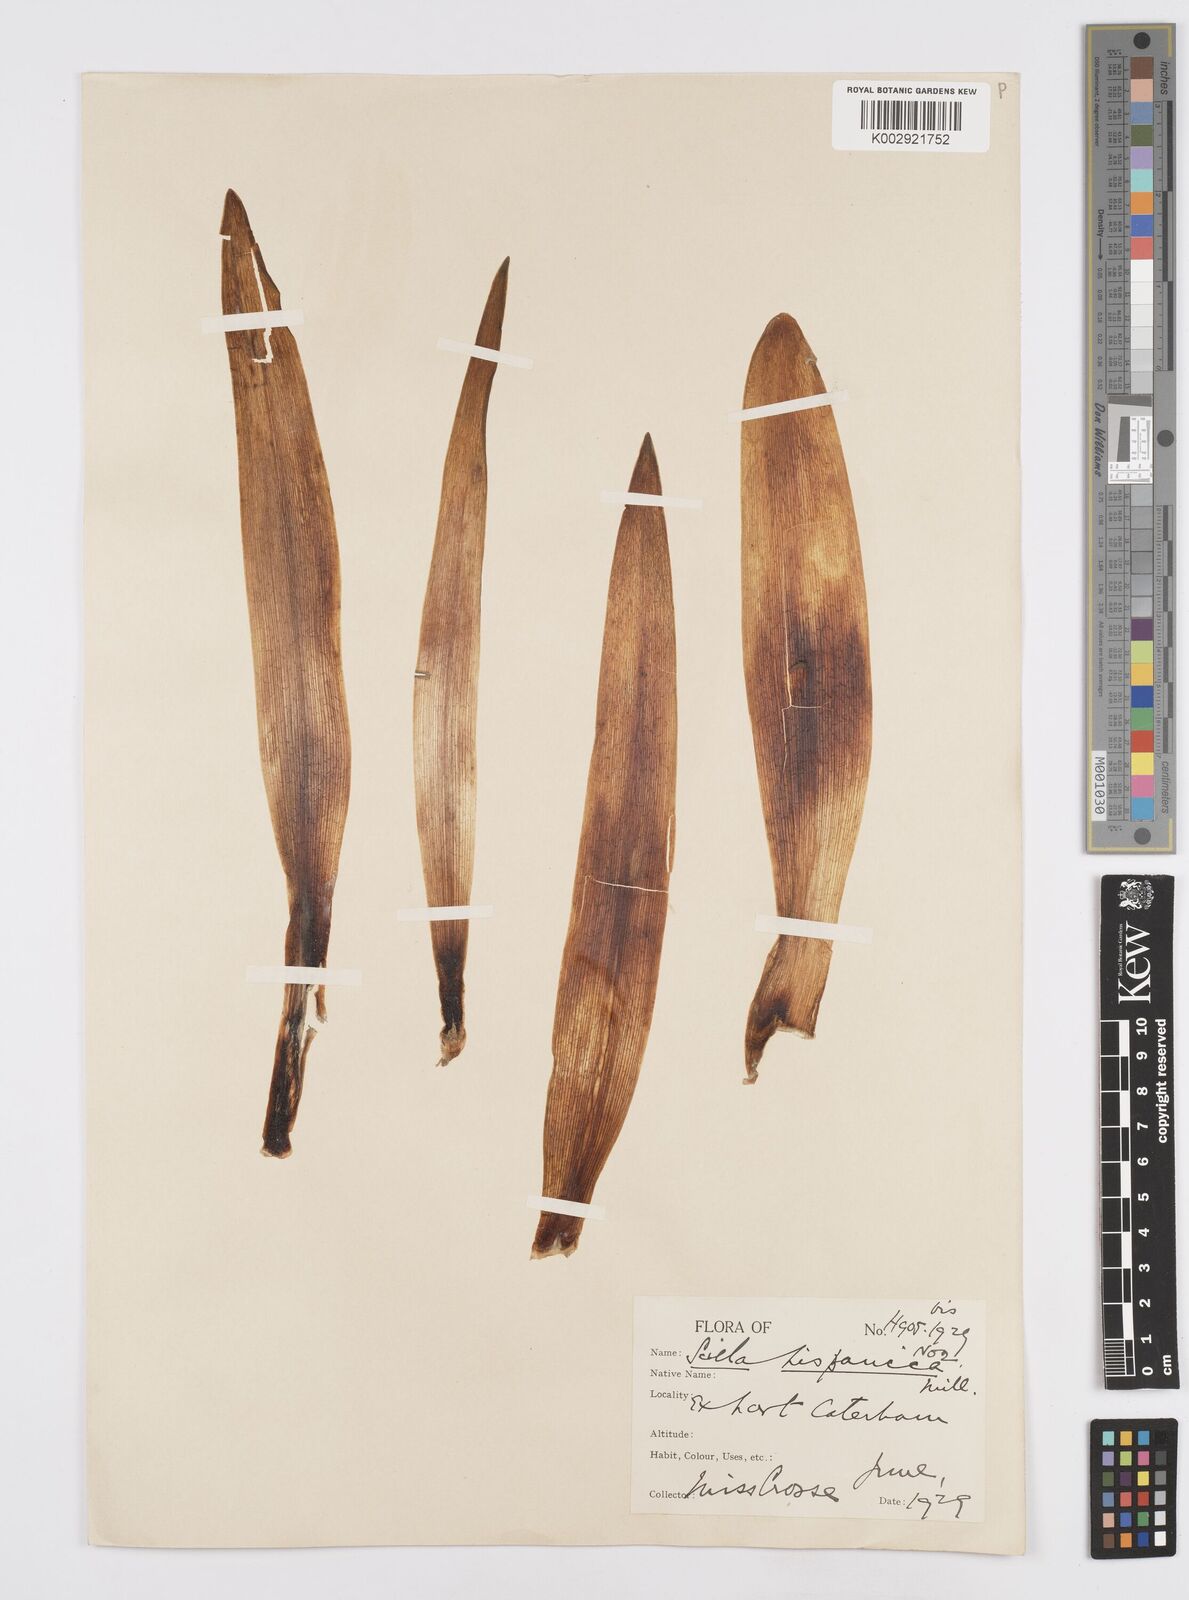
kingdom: Plantae
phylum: Tracheophyta
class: Liliopsida
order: Asparagales
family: Asparagaceae
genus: Hyacinthoides
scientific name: Hyacinthoides hispanica
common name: Spanish bluebell
